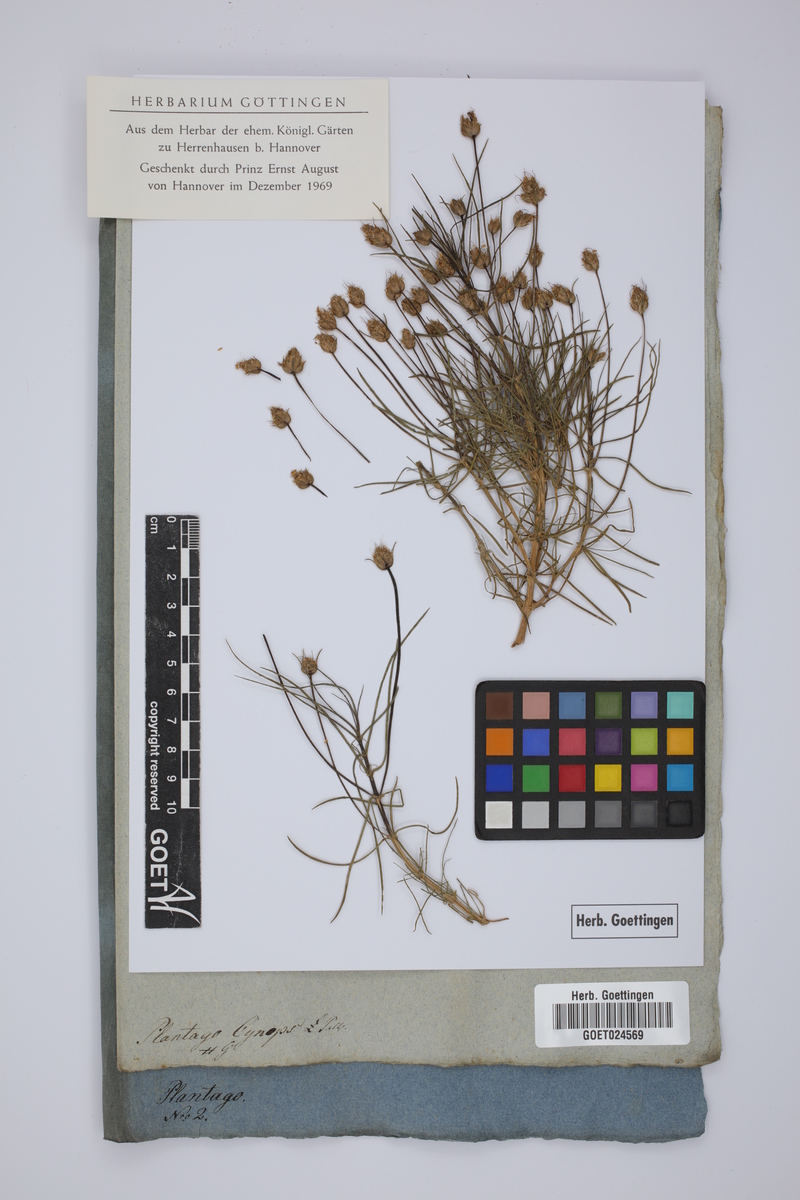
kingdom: Plantae
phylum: Tracheophyta
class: Magnoliopsida
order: Lamiales
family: Plantaginaceae
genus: Plantago
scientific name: Plantago afra
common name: Glandular plantain
